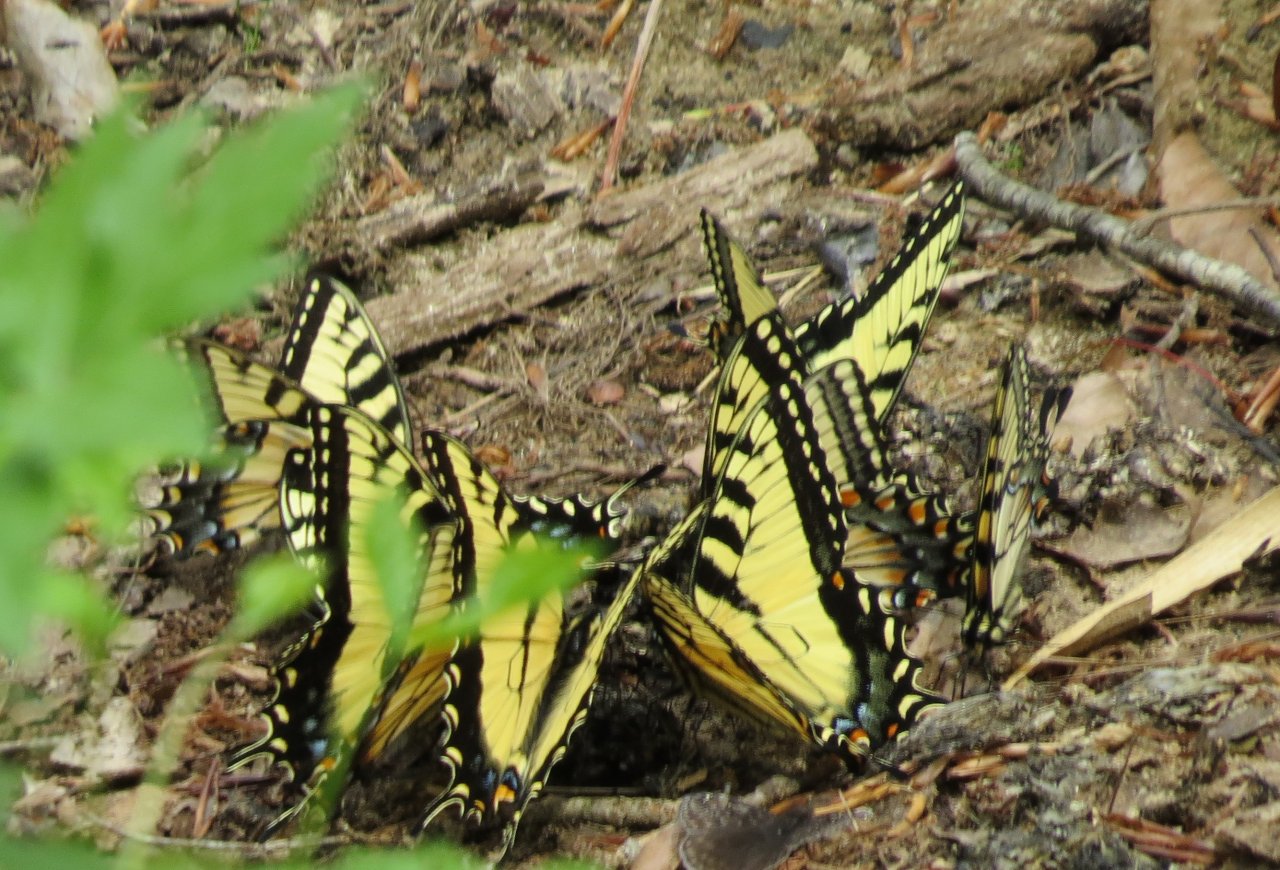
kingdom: Animalia
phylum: Arthropoda
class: Insecta
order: Lepidoptera
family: Papilionidae
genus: Pterourus
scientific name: Pterourus glaucus
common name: Eastern Tiger Swallowtail
